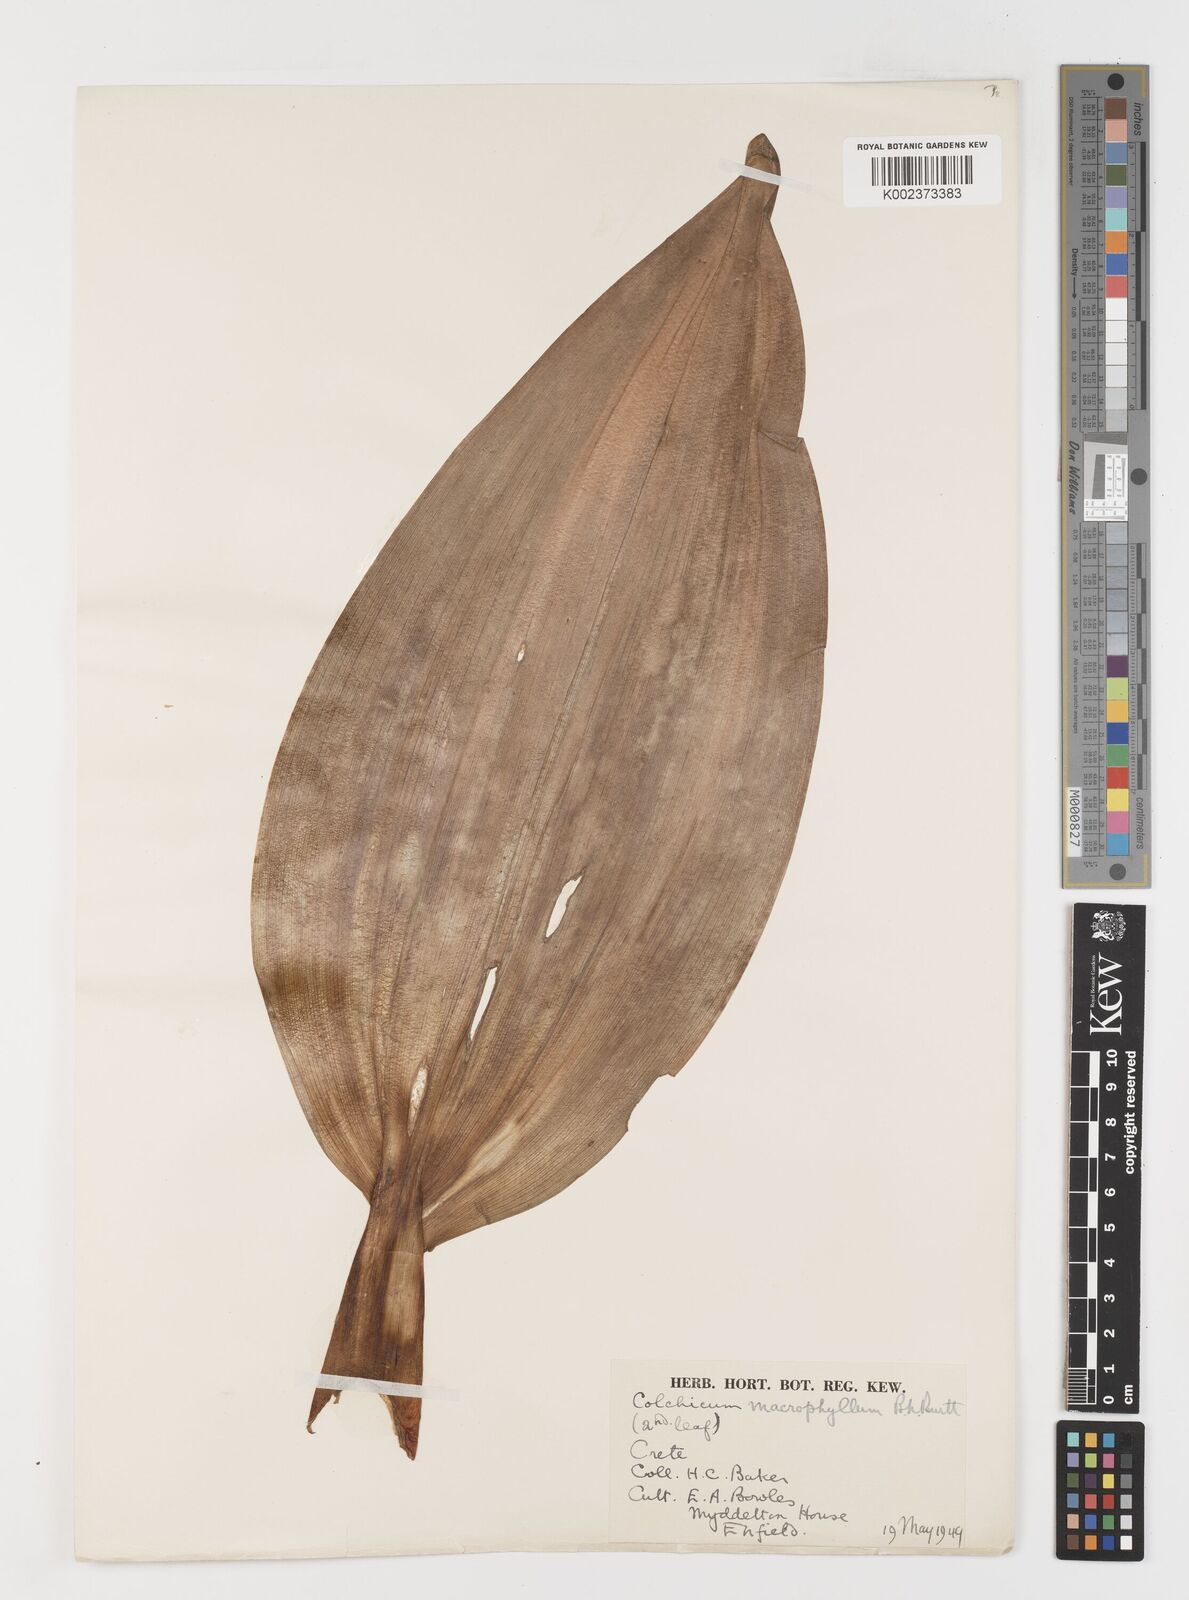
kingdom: Plantae
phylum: Tracheophyta
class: Liliopsida
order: Liliales
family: Colchicaceae
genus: Colchicum
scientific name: Colchicum macrophyllum
